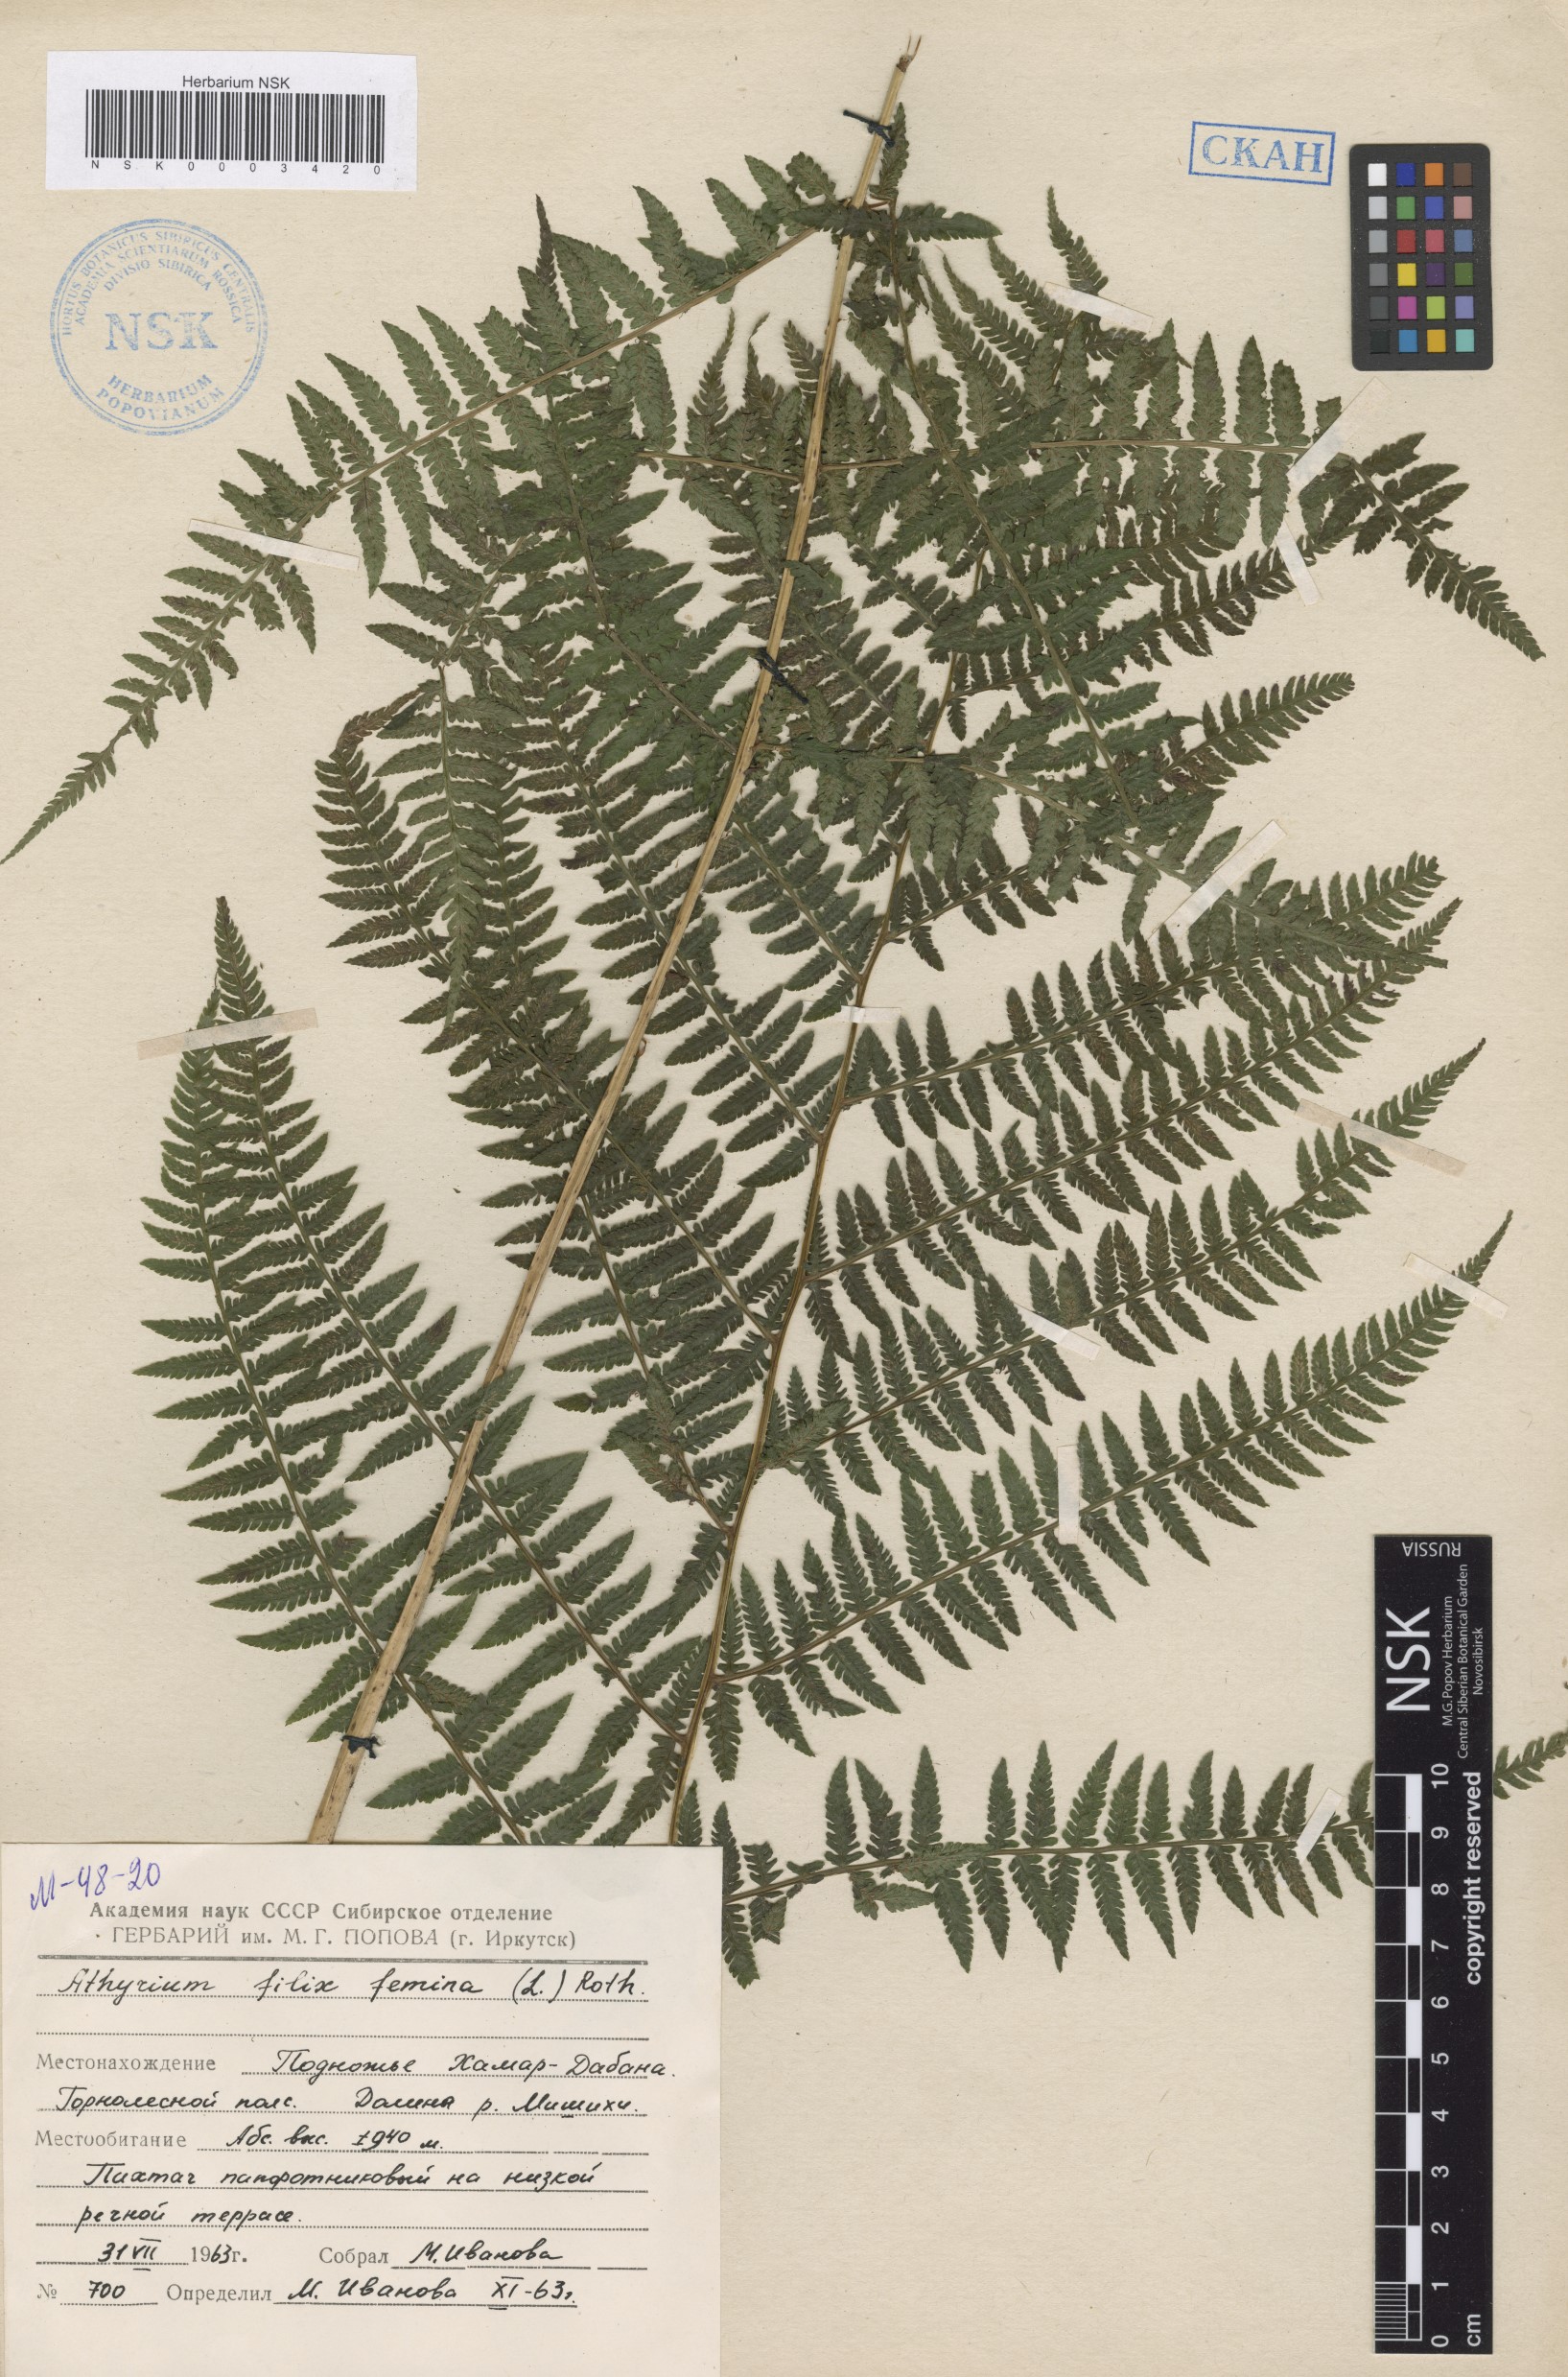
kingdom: Plantae
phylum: Tracheophyta
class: Polypodiopsida
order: Polypodiales
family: Athyriaceae
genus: Athyrium
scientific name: Athyrium filix-femina
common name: Lady fern
